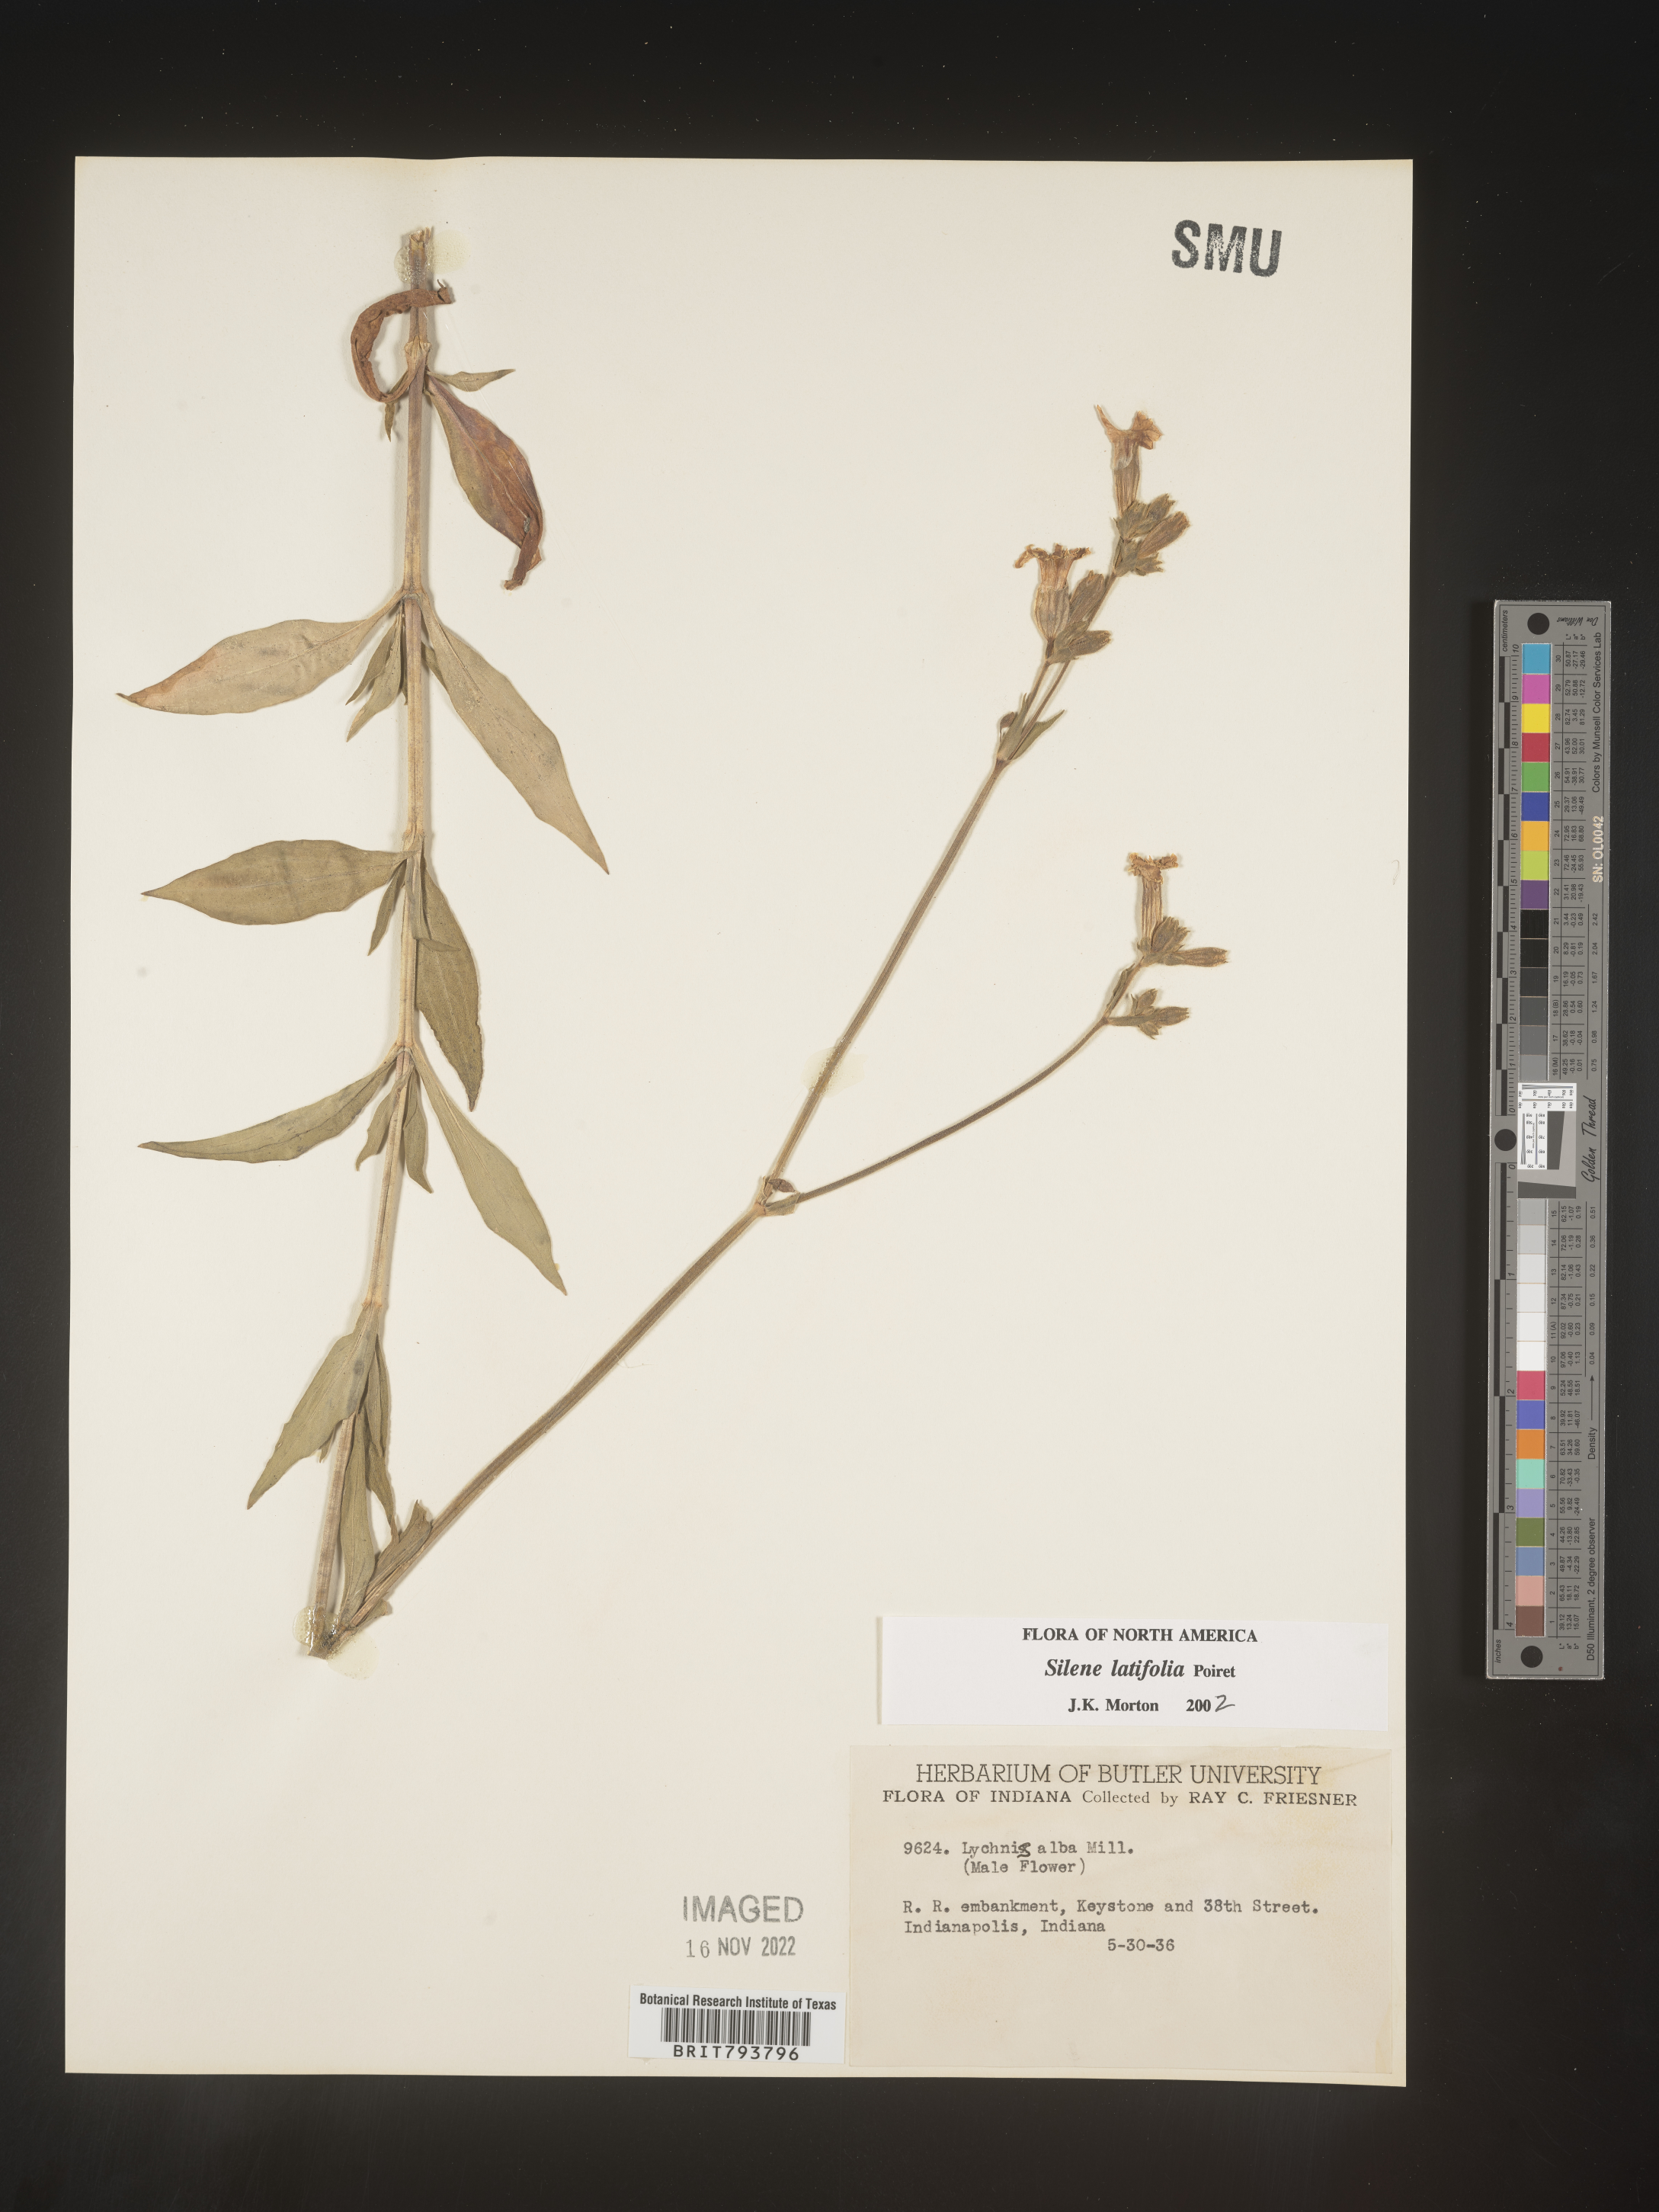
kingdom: Plantae
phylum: Tracheophyta
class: Magnoliopsida
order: Caryophyllales
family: Caryophyllaceae
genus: Silene
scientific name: Silene latifolia
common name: White campion
